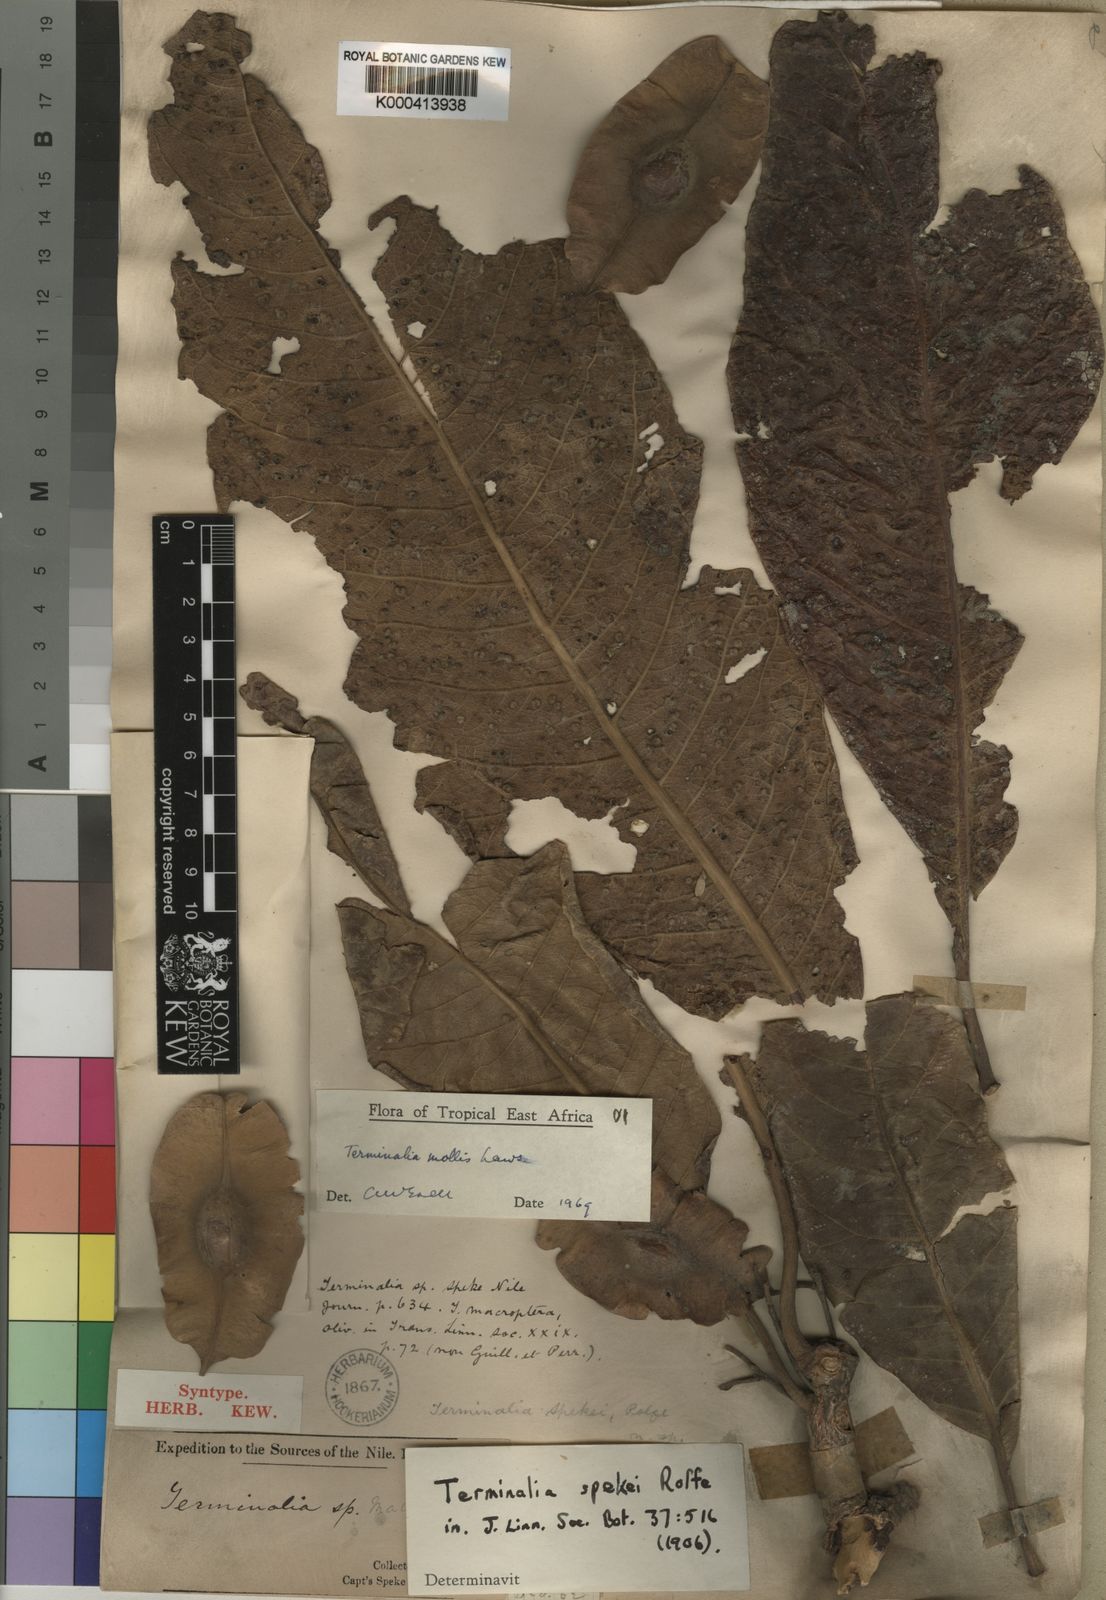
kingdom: Plantae
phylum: Tracheophyta
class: Magnoliopsida
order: Myrtales
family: Combretaceae
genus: Terminalia
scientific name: Terminalia mollis
